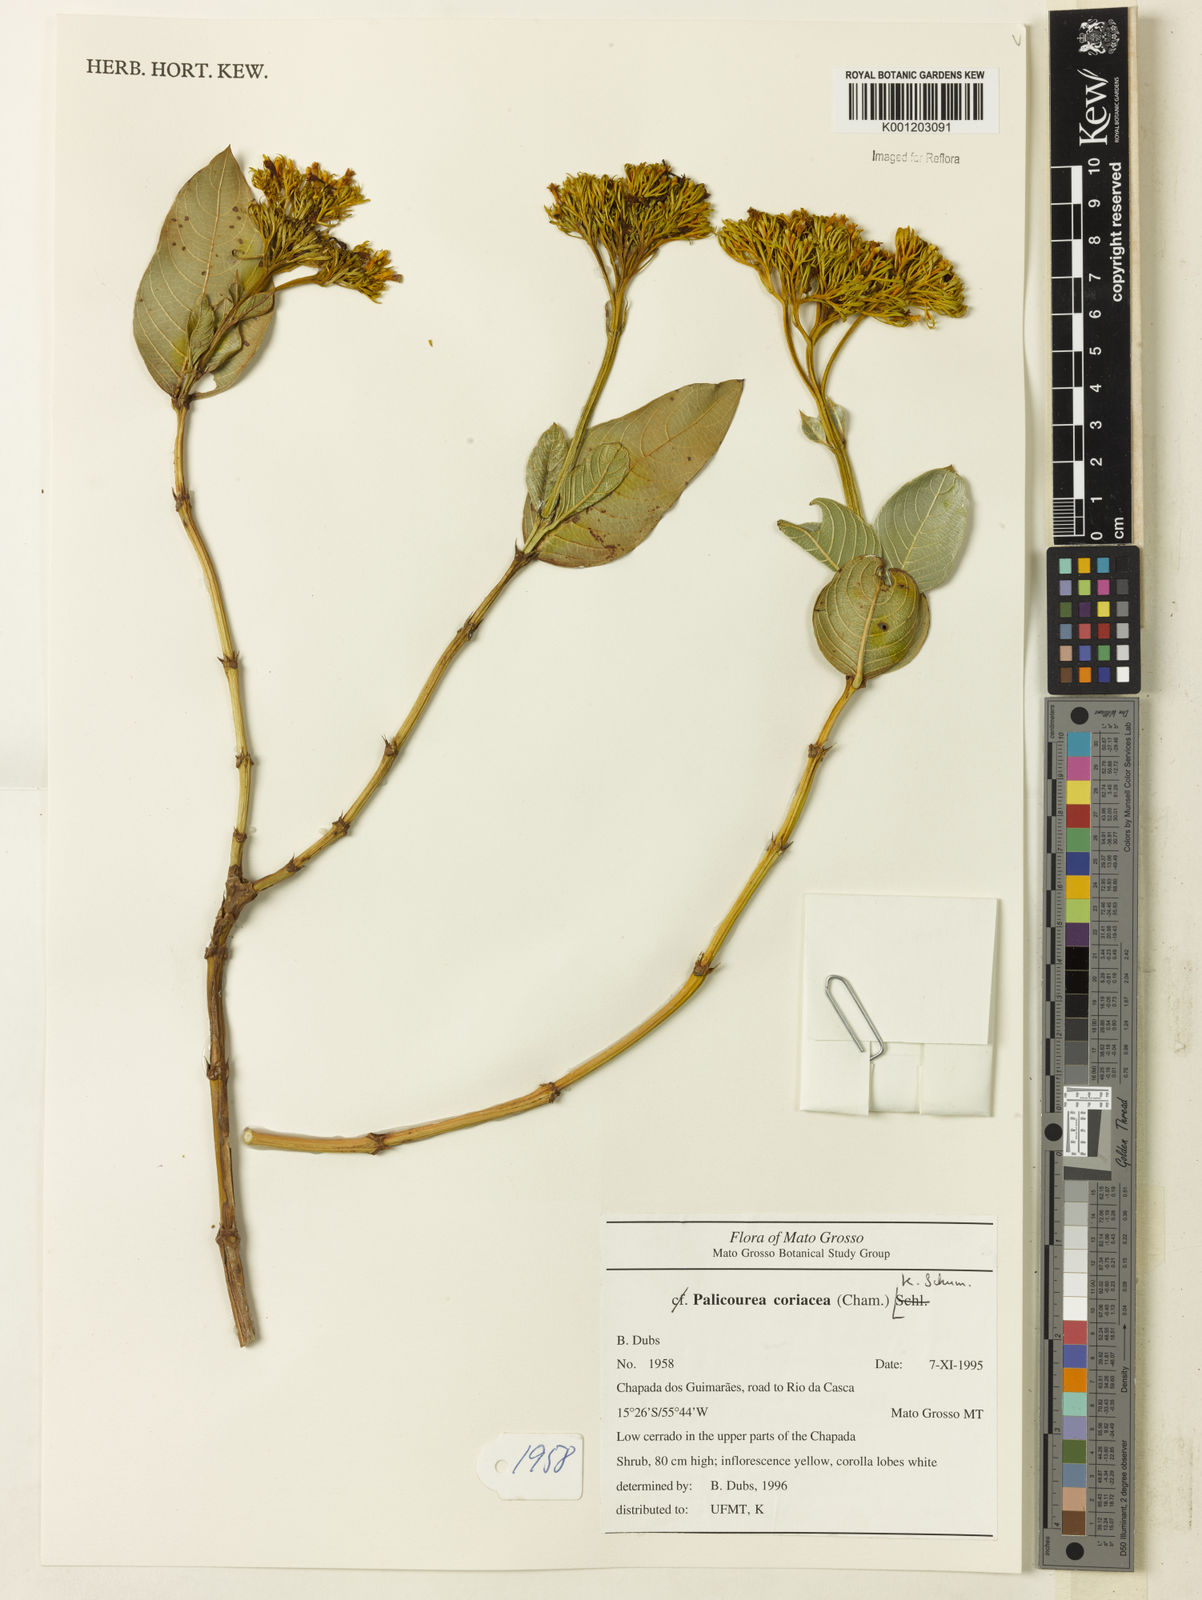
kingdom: Plantae
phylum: Tracheophyta
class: Magnoliopsida
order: Gentianales
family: Rubiaceae
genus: Palicourea
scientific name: Palicourea coriacea
